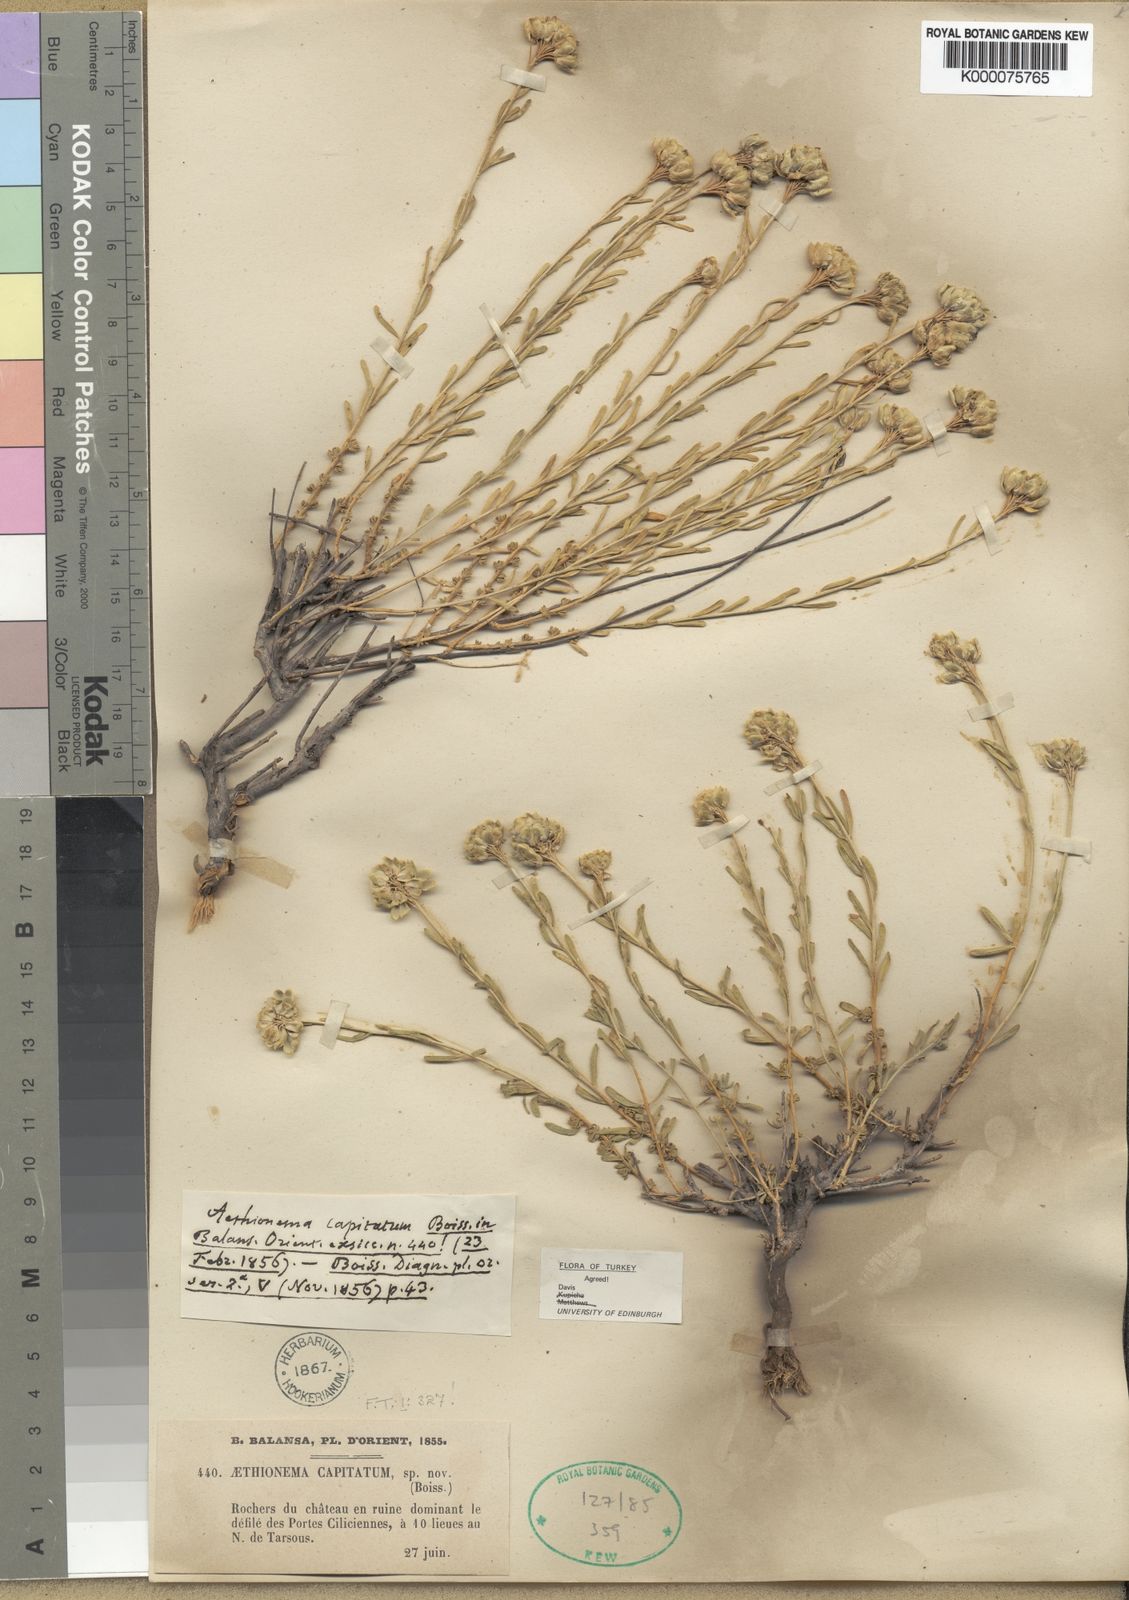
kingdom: Plantae
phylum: Tracheophyta
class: Magnoliopsida
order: Brassicales
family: Brassicaceae
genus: Aethionema
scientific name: Aethionema capitatum
